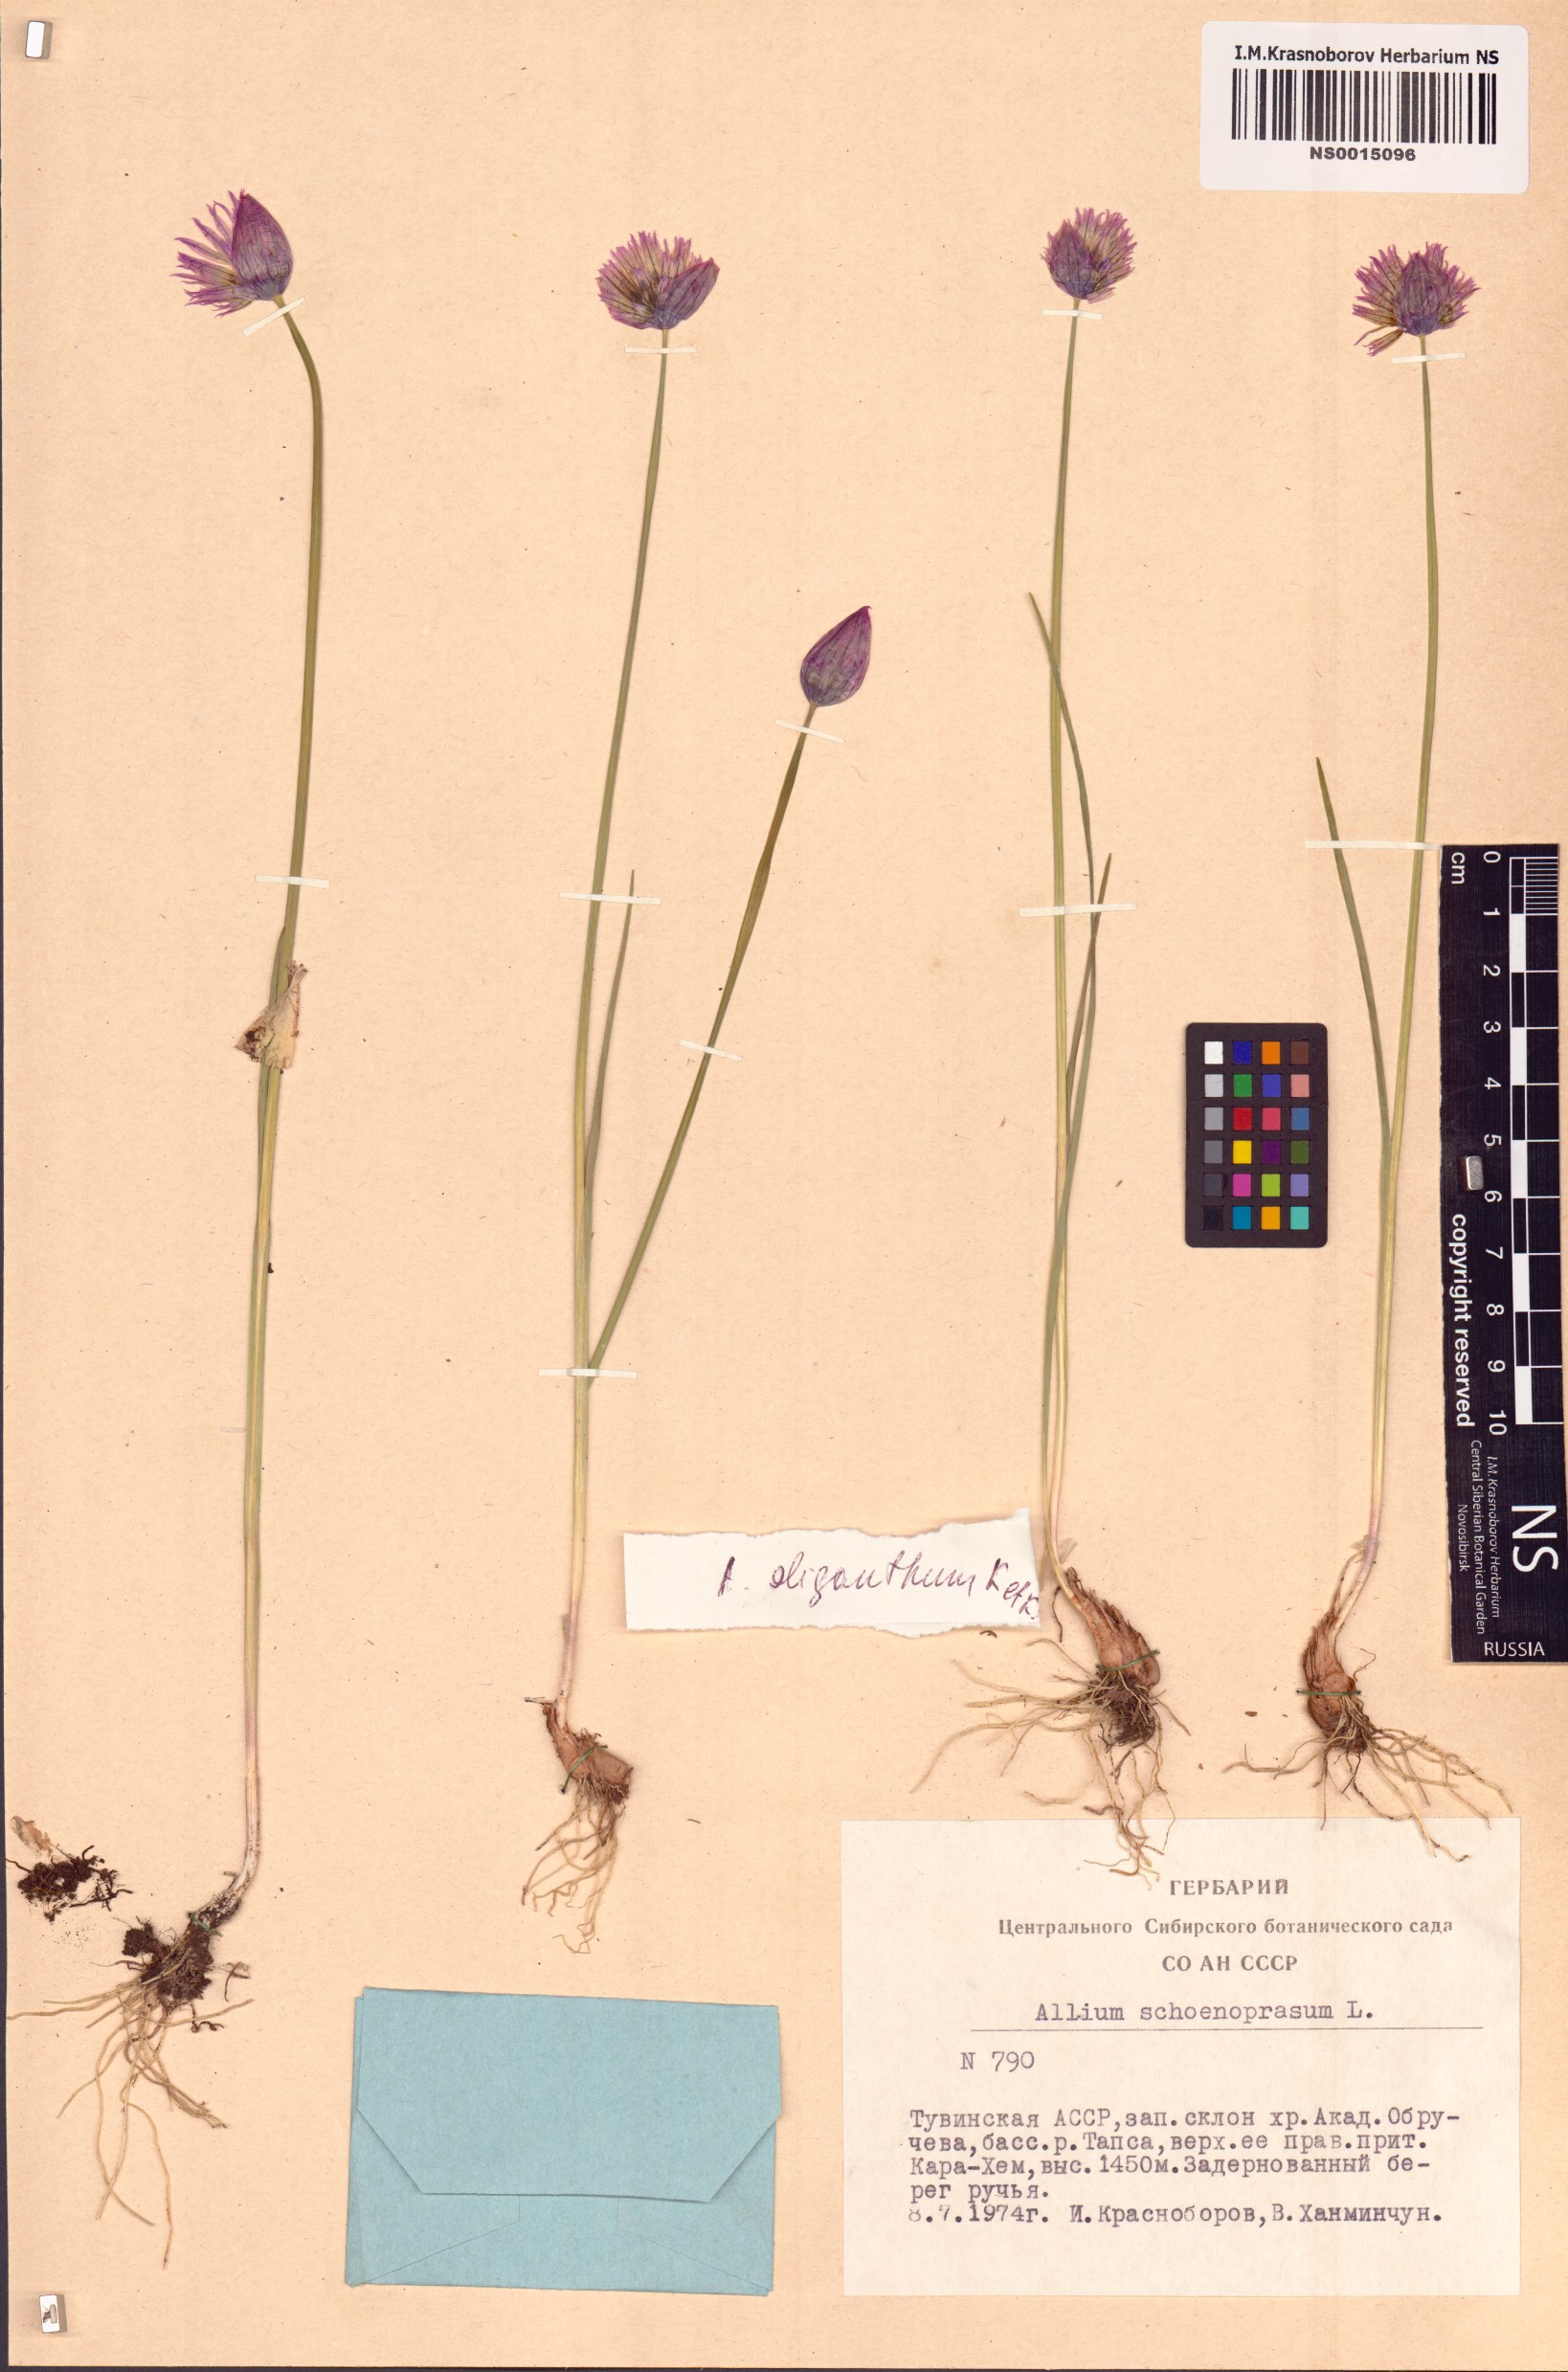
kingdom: Plantae
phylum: Tracheophyta
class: Liliopsida
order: Asparagales
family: Amaryllidaceae
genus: Allium
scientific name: Allium schoenoprasum
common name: Chives
